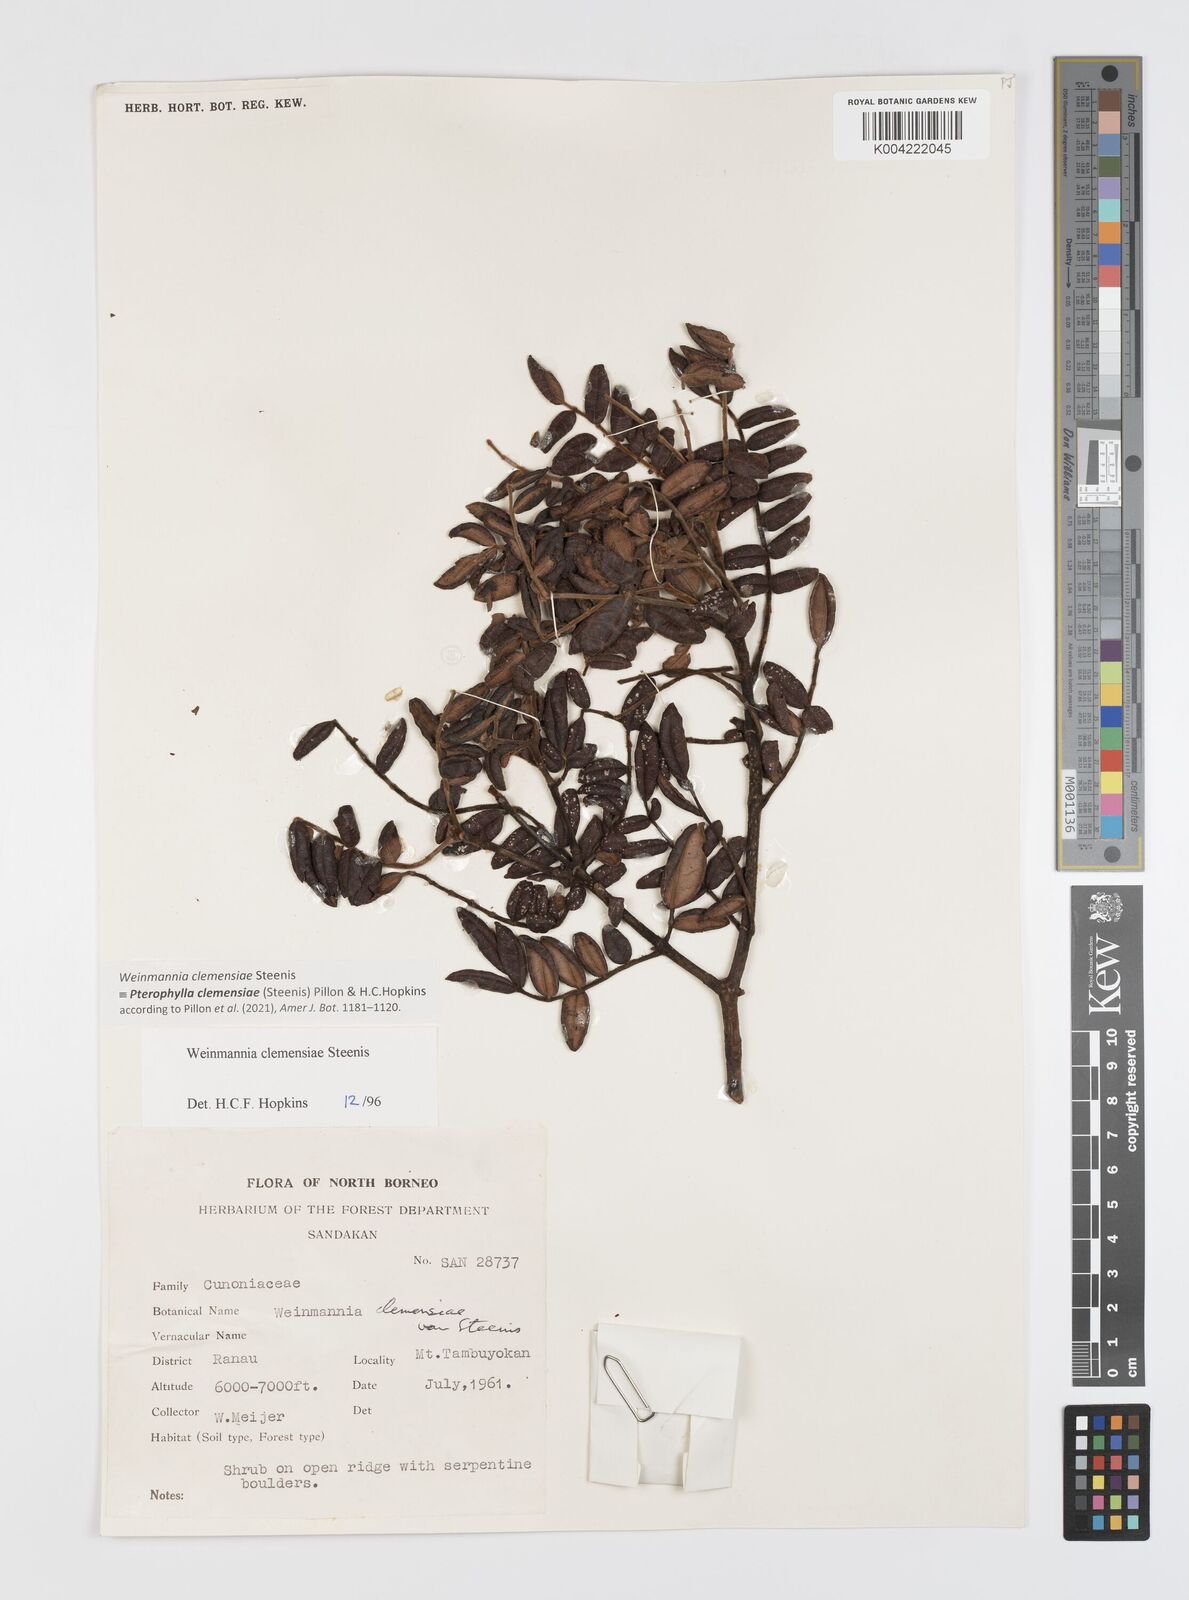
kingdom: Plantae
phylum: Tracheophyta
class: Magnoliopsida
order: Oxalidales
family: Cunoniaceae
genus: Pterophylla
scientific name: Pterophylla clemensiae
